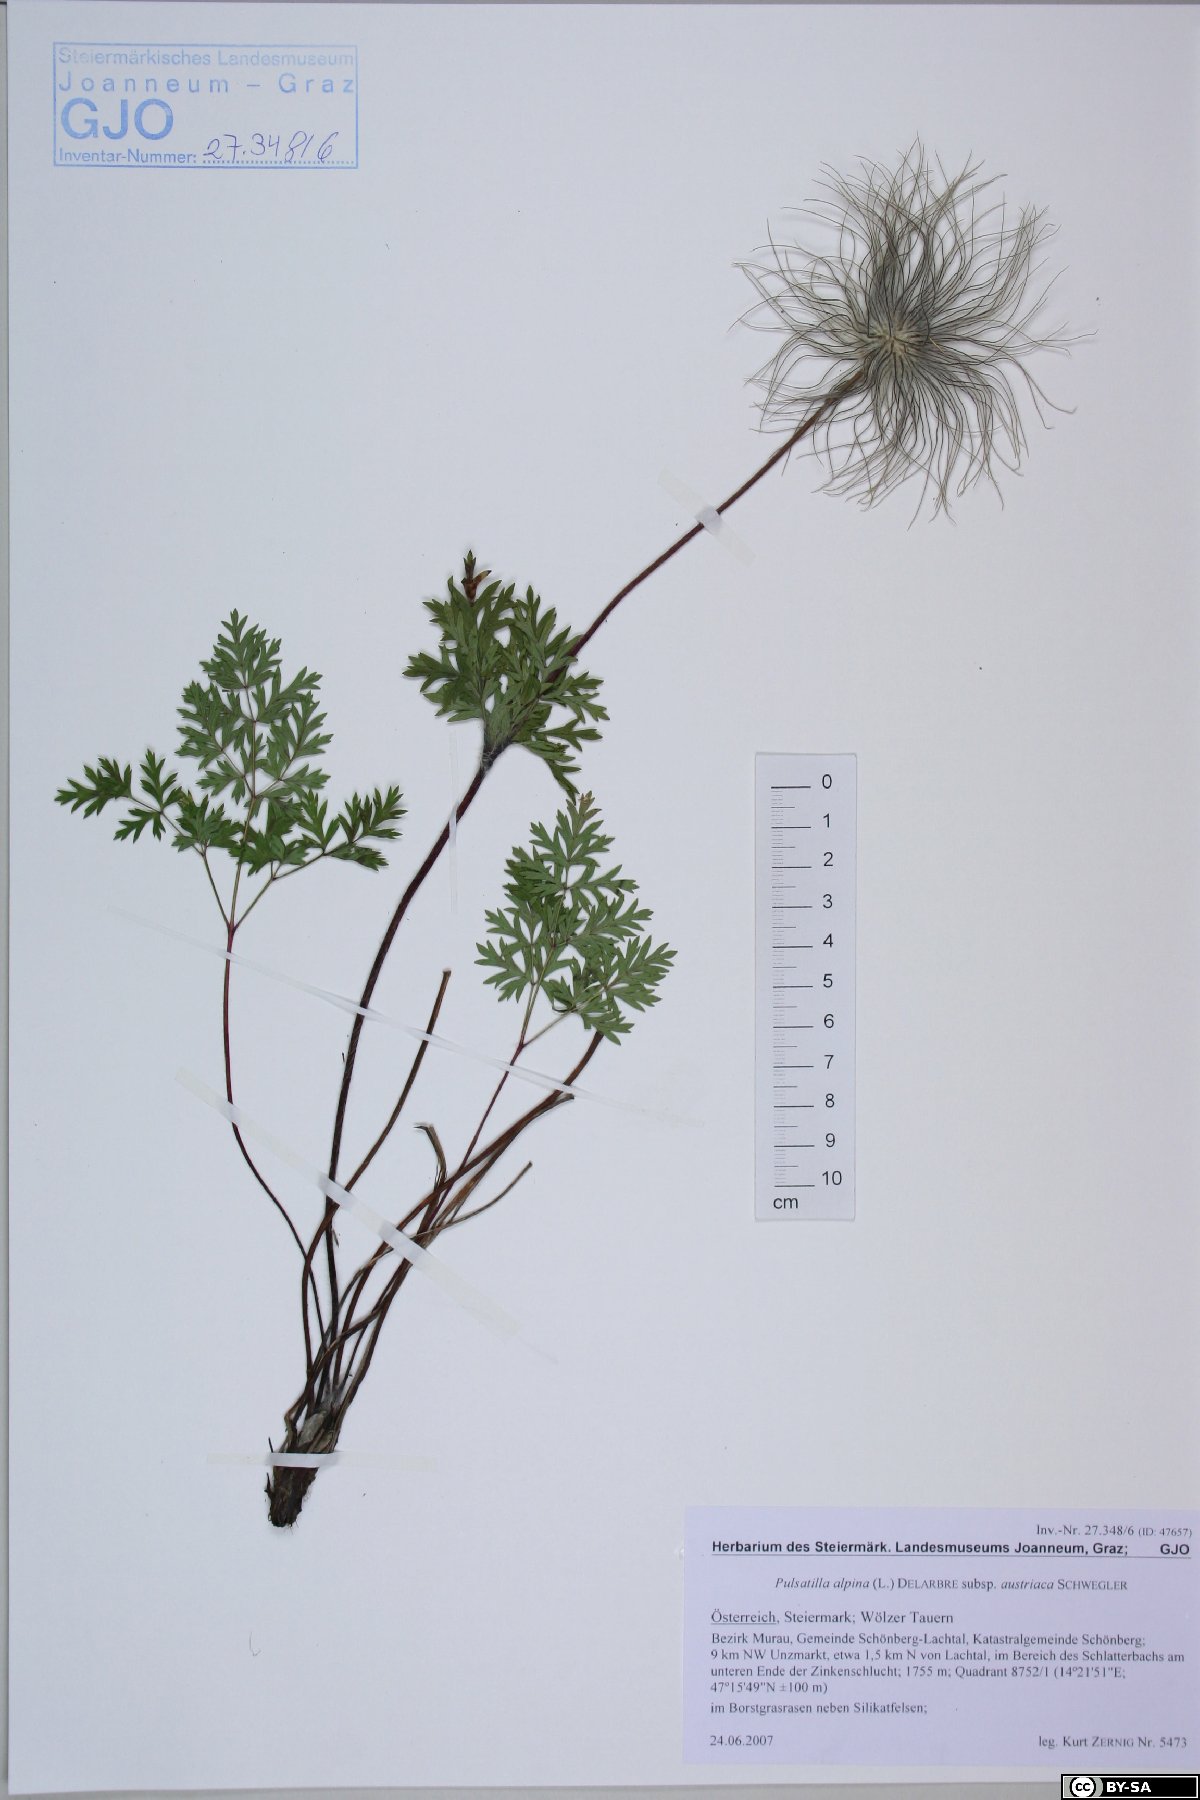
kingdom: Plantae
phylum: Tracheophyta
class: Magnoliopsida
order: Ranunculales
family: Ranunculaceae
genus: Pulsatilla
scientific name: Pulsatilla alpina
